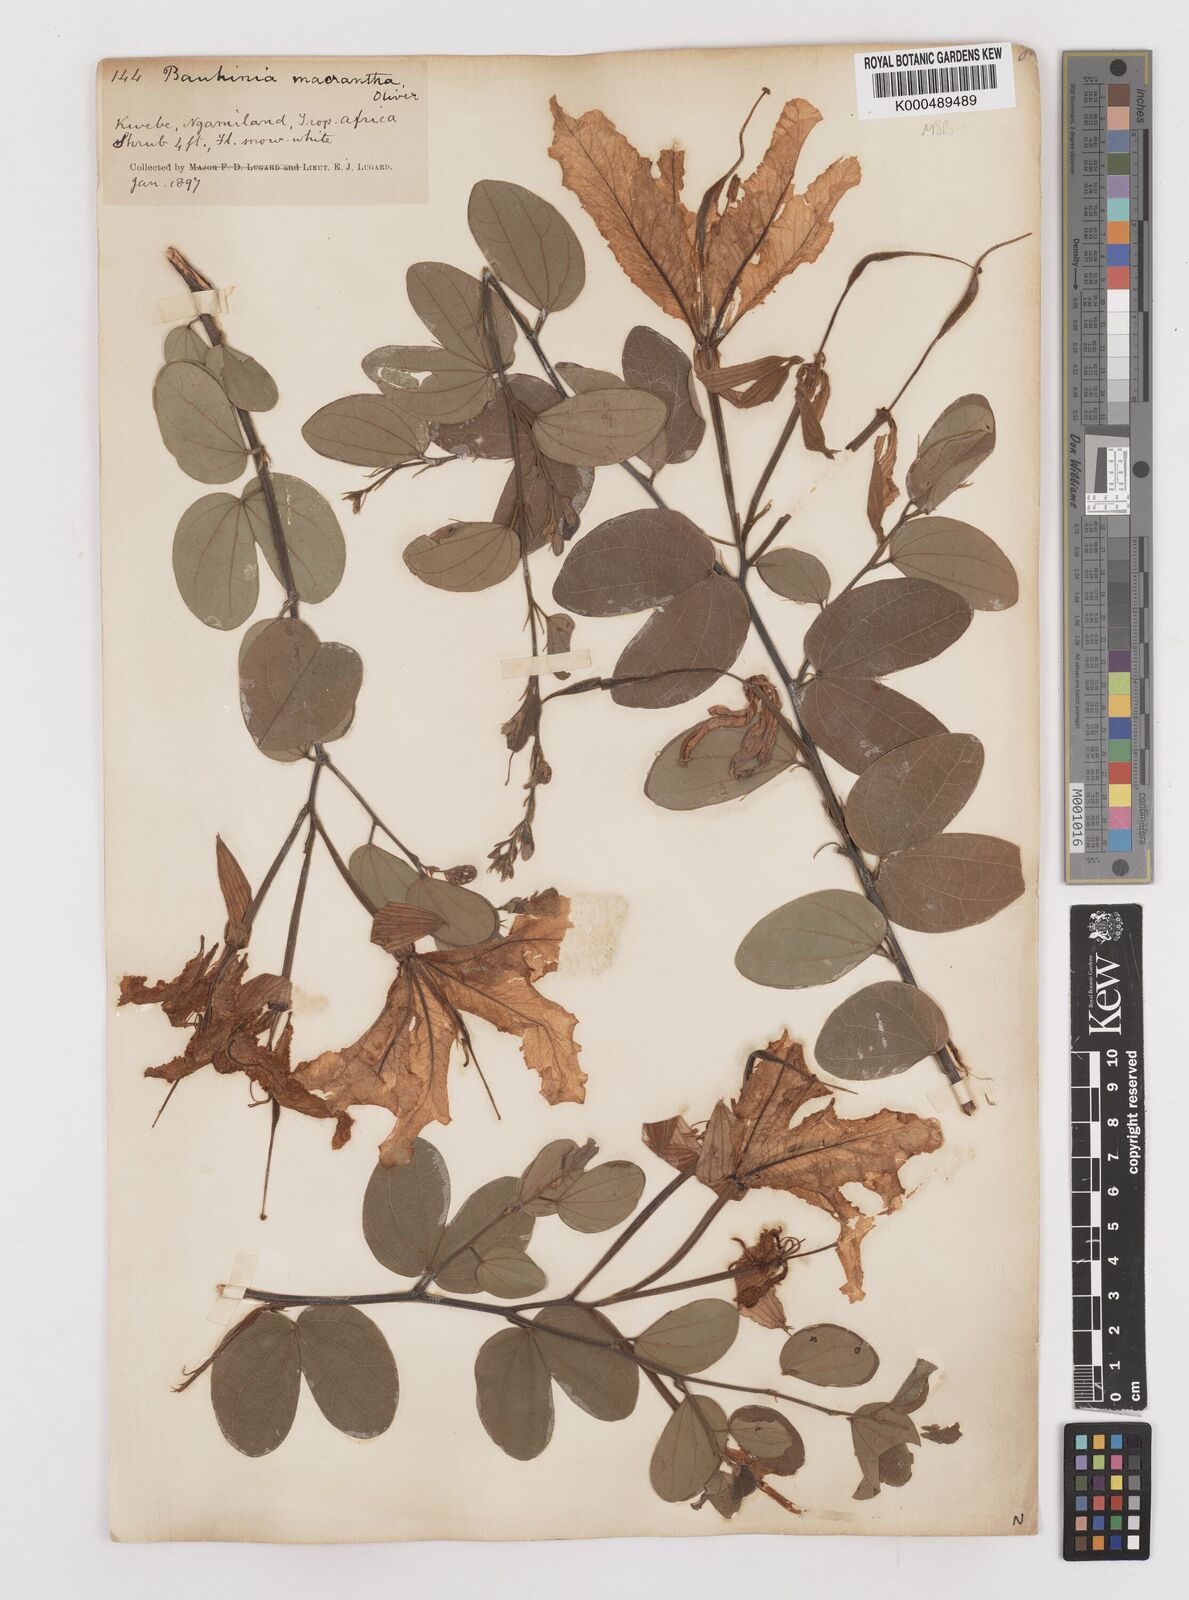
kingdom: Plantae
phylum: Tracheophyta
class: Magnoliopsida
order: Fabales
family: Fabaceae
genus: Bauhinia
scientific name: Bauhinia macrantha
